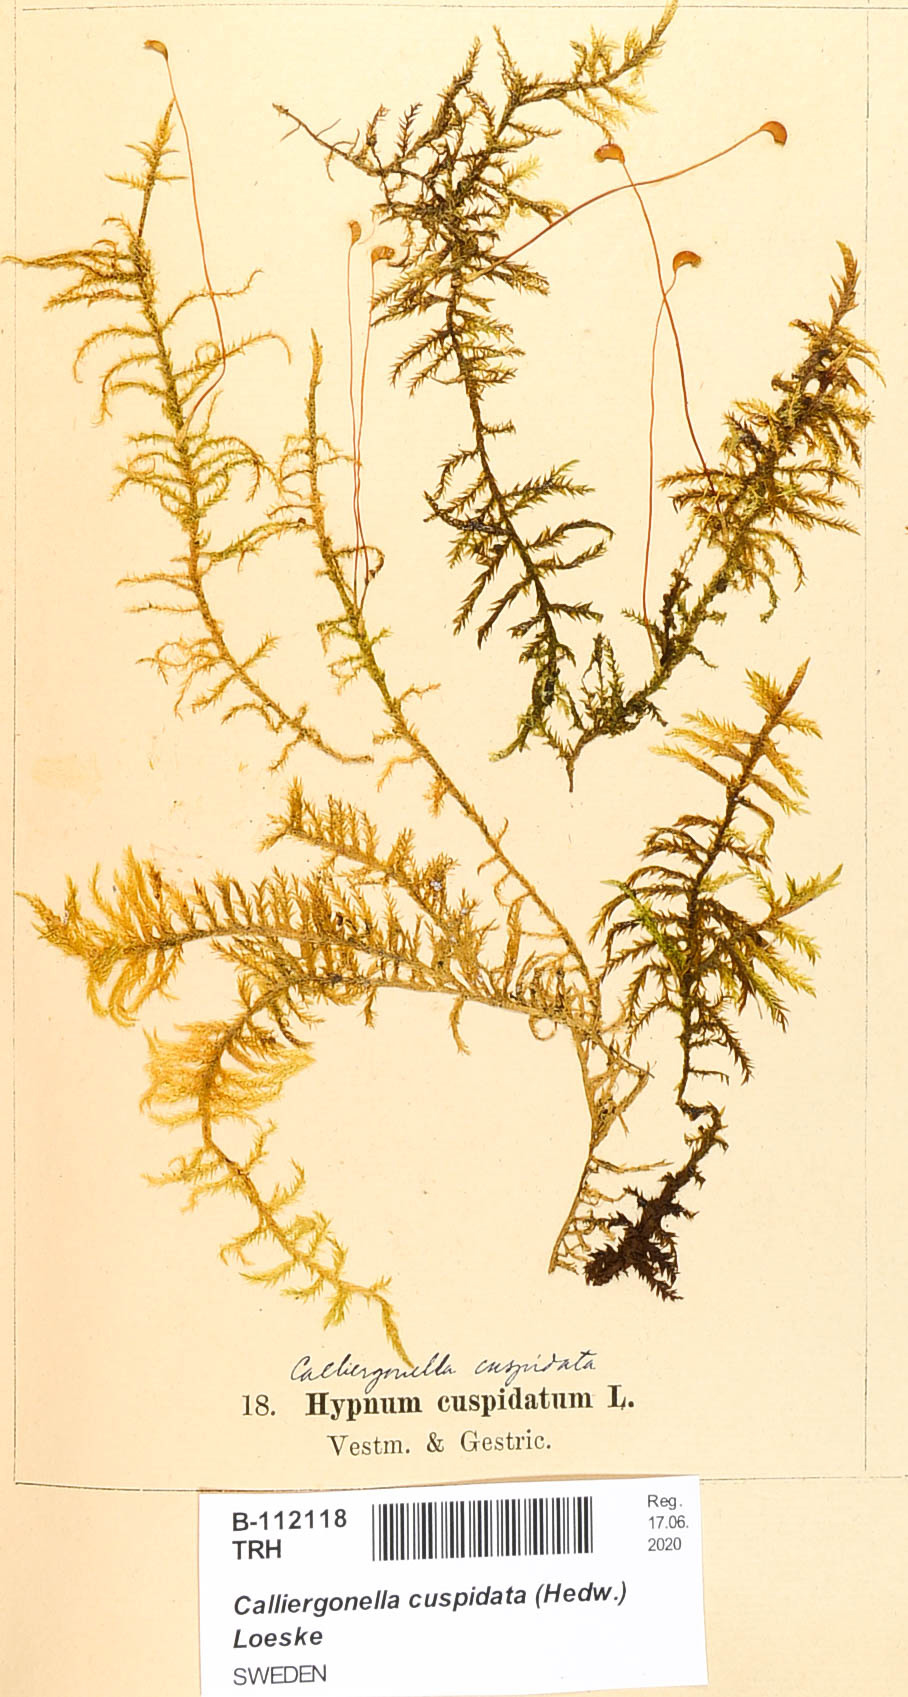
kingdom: Plantae
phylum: Bryophyta
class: Bryopsida
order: Hypnales
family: Pylaisiaceae
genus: Calliergonella
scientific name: Calliergonella cuspidata
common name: Common large wetland moss
